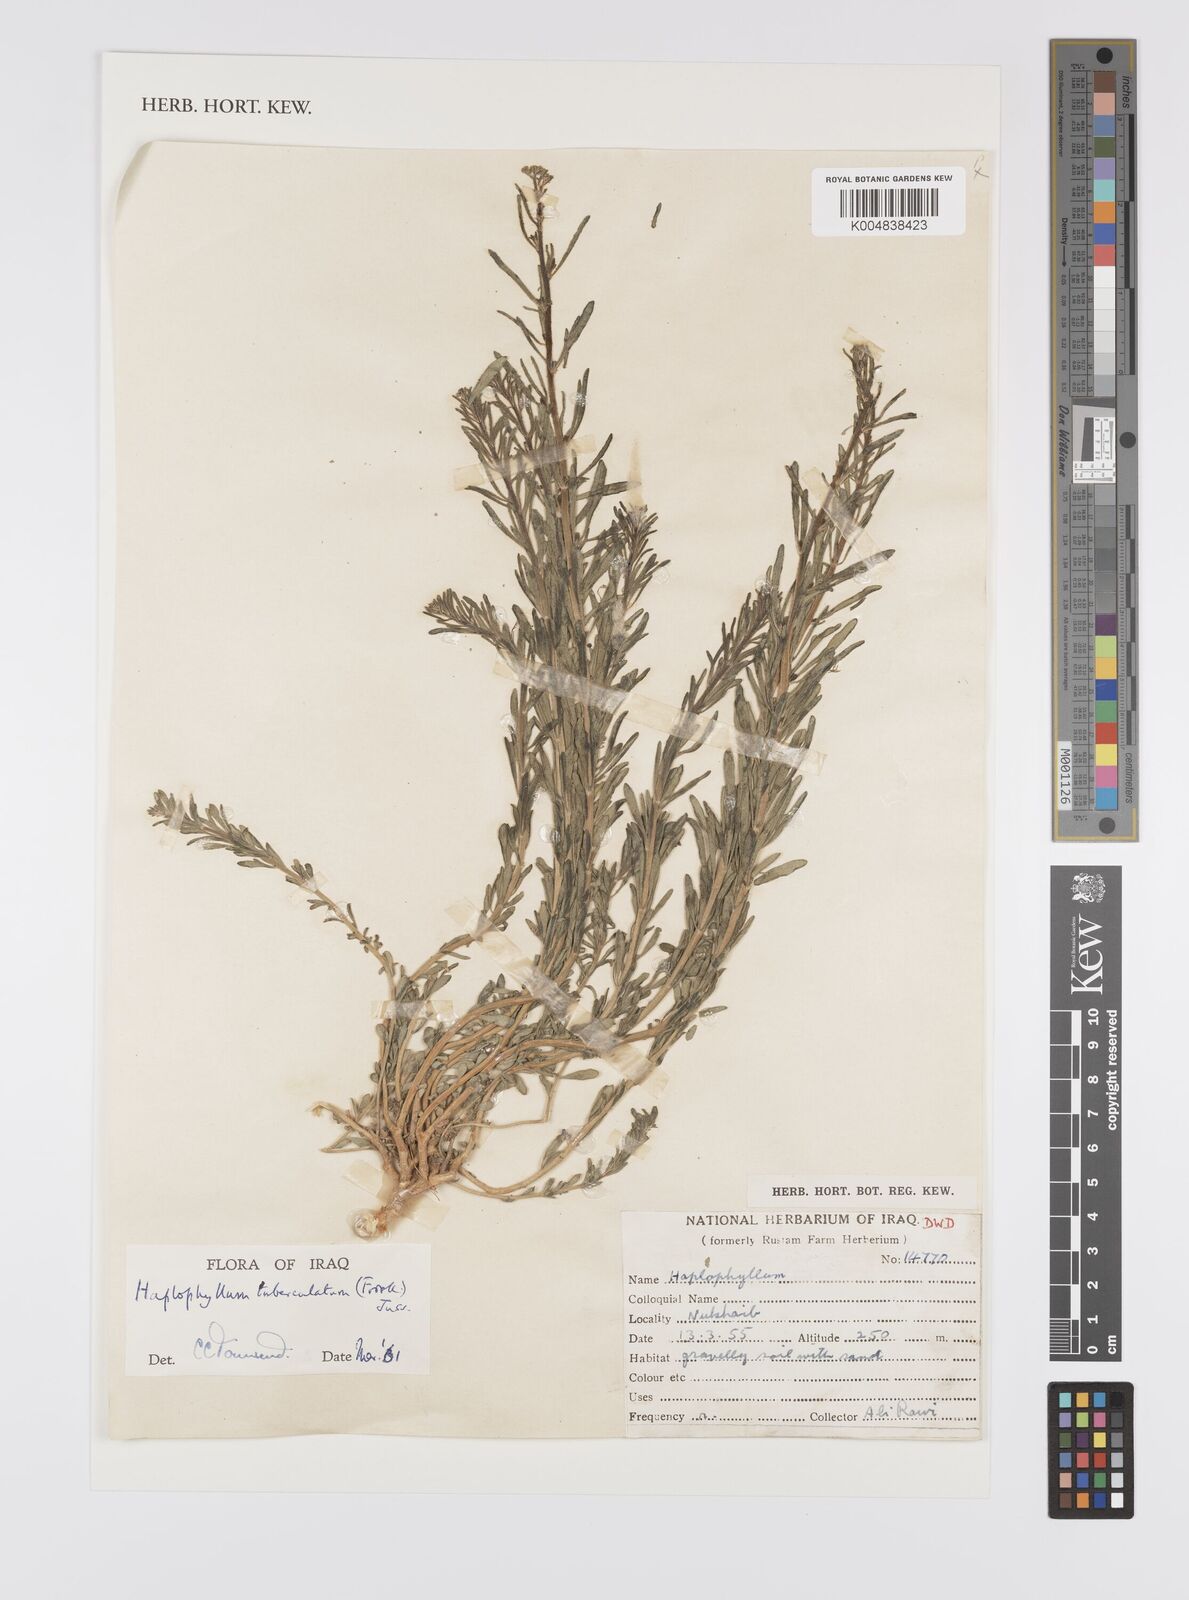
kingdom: Plantae
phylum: Tracheophyta
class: Magnoliopsida
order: Sapindales
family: Rutaceae
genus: Haplophyllum
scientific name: Haplophyllum tuberculatum
